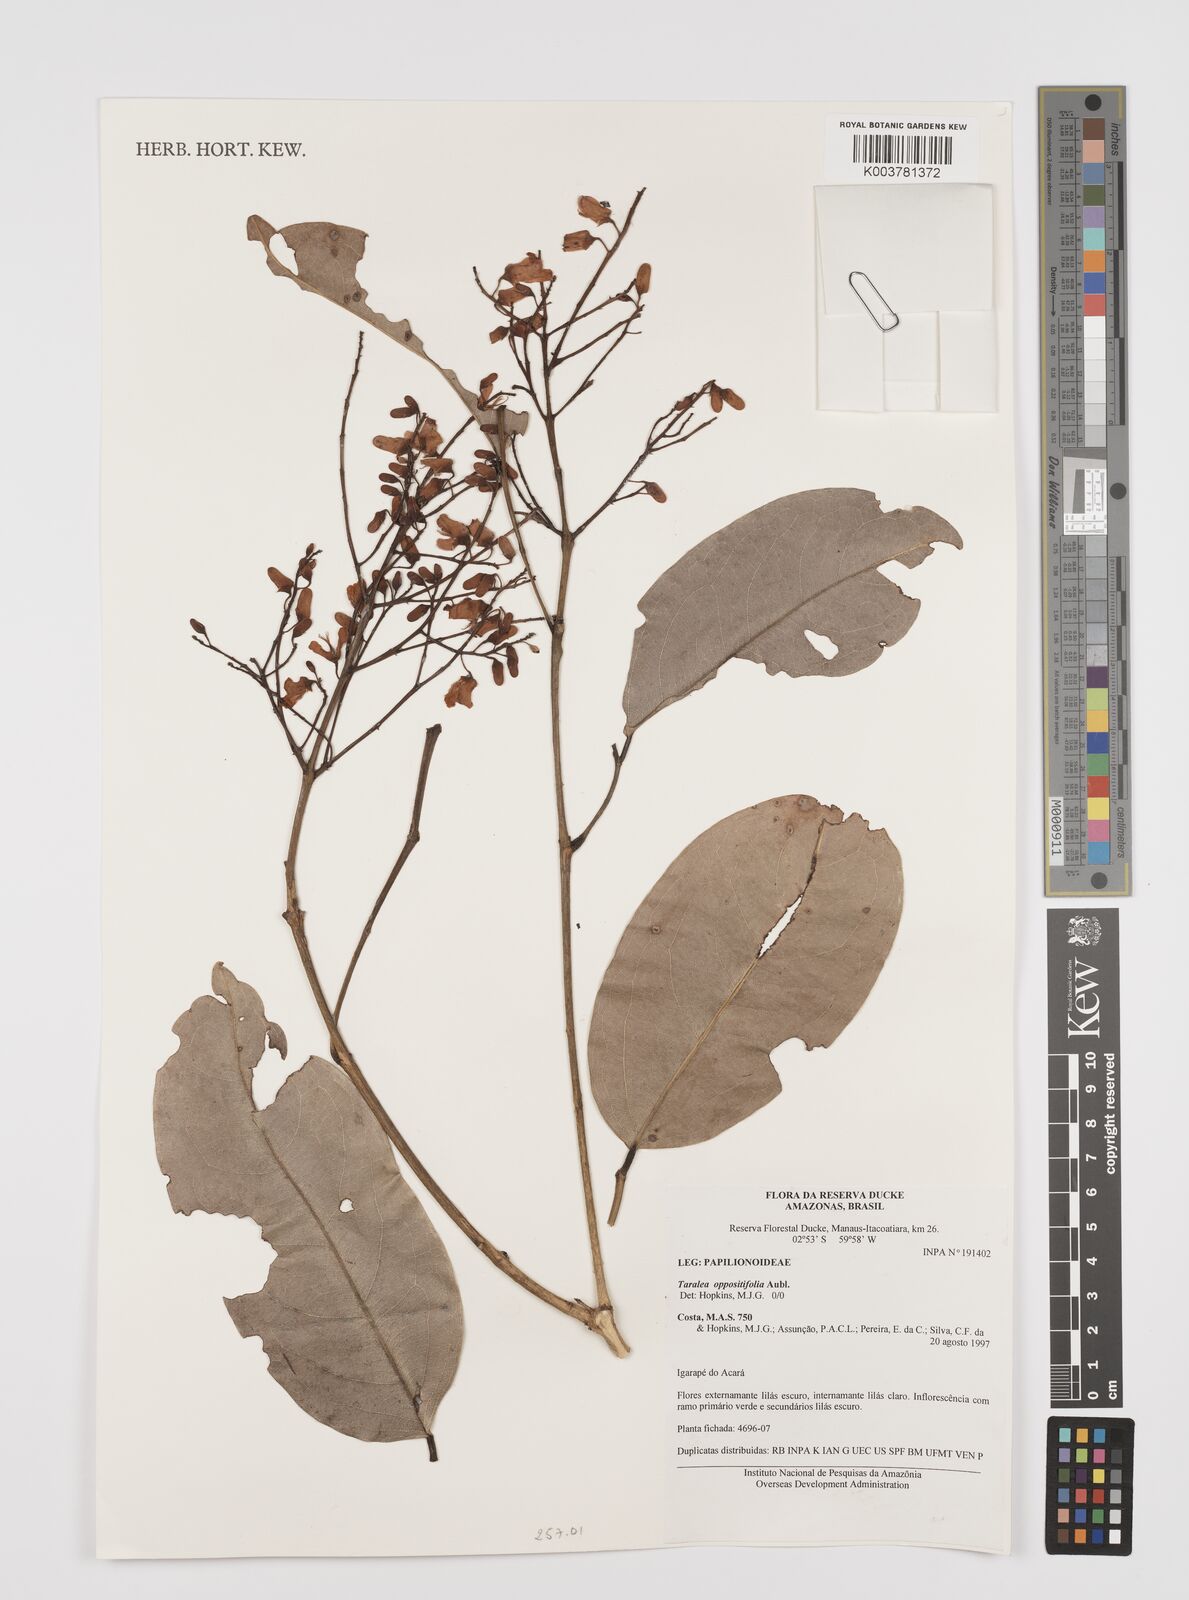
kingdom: Plantae
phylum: Tracheophyta
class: Magnoliopsida
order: Fabales
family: Fabaceae
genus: Taralea
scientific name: Taralea oppositifolia
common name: Tonka
